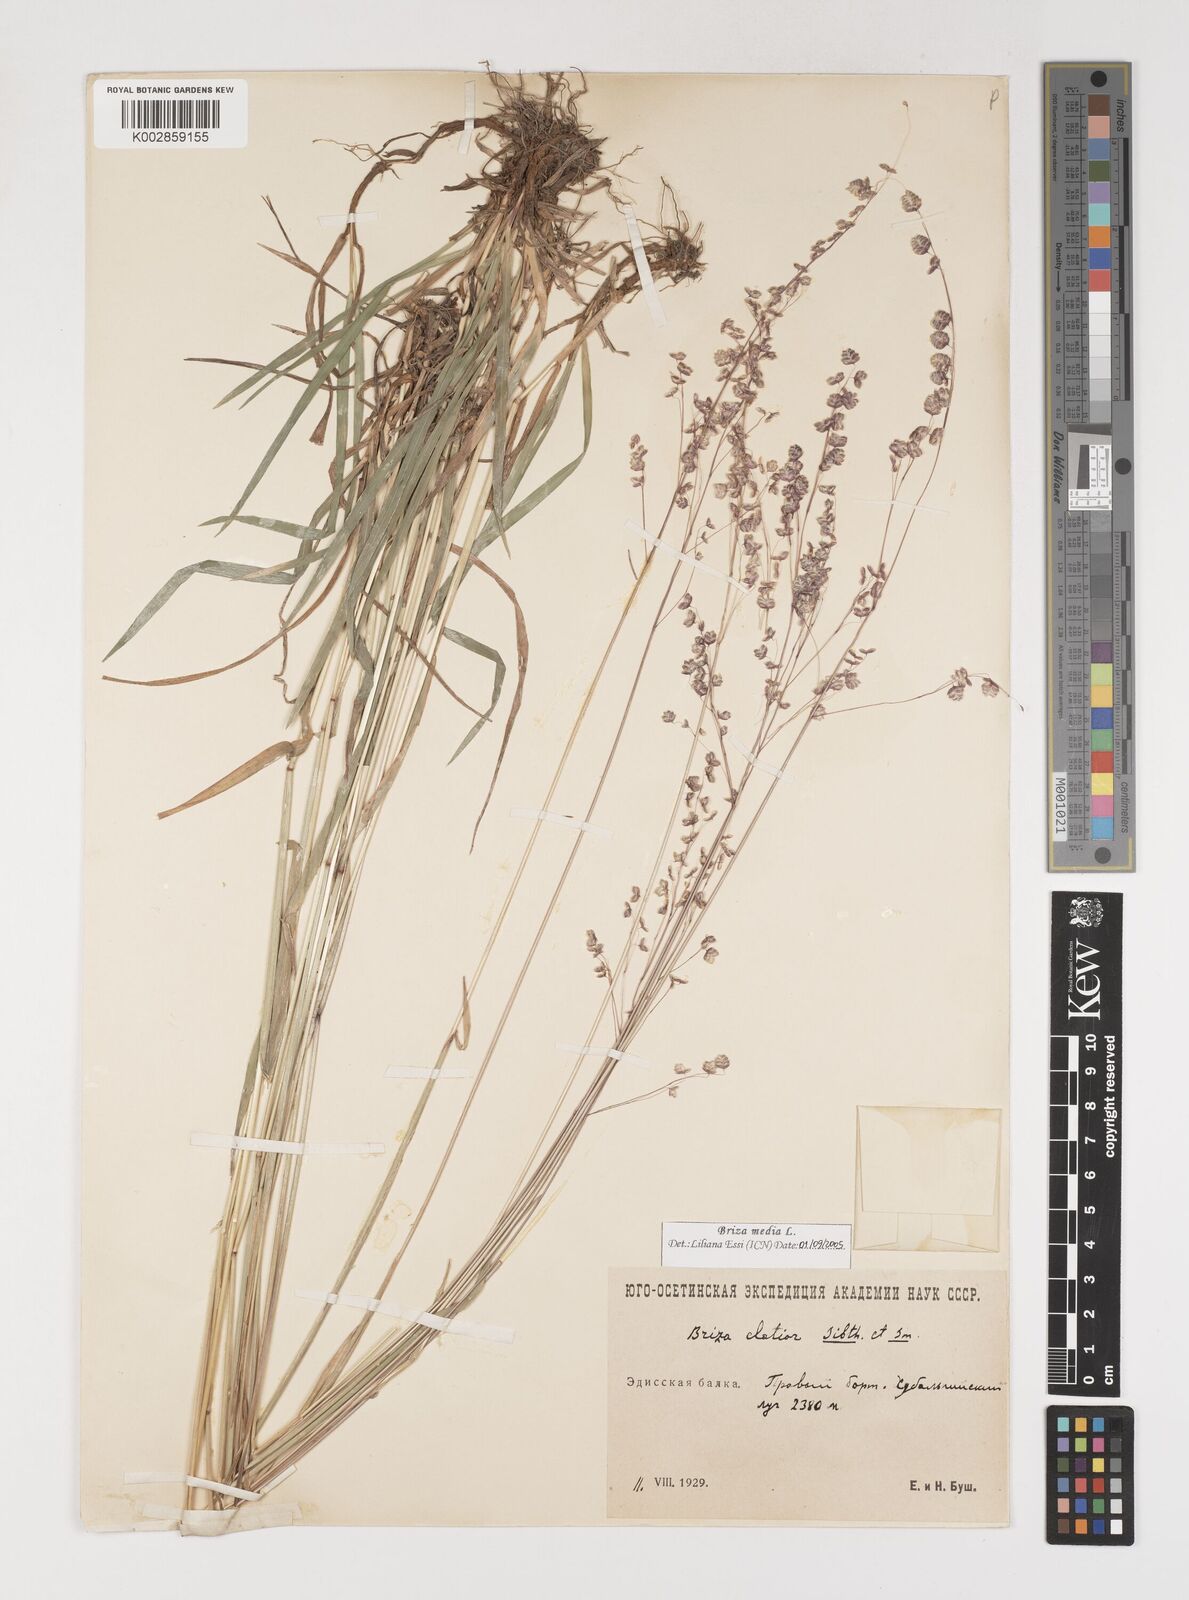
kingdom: Plantae
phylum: Tracheophyta
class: Liliopsida
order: Poales
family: Poaceae
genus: Briza
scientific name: Briza media
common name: Quaking grass
